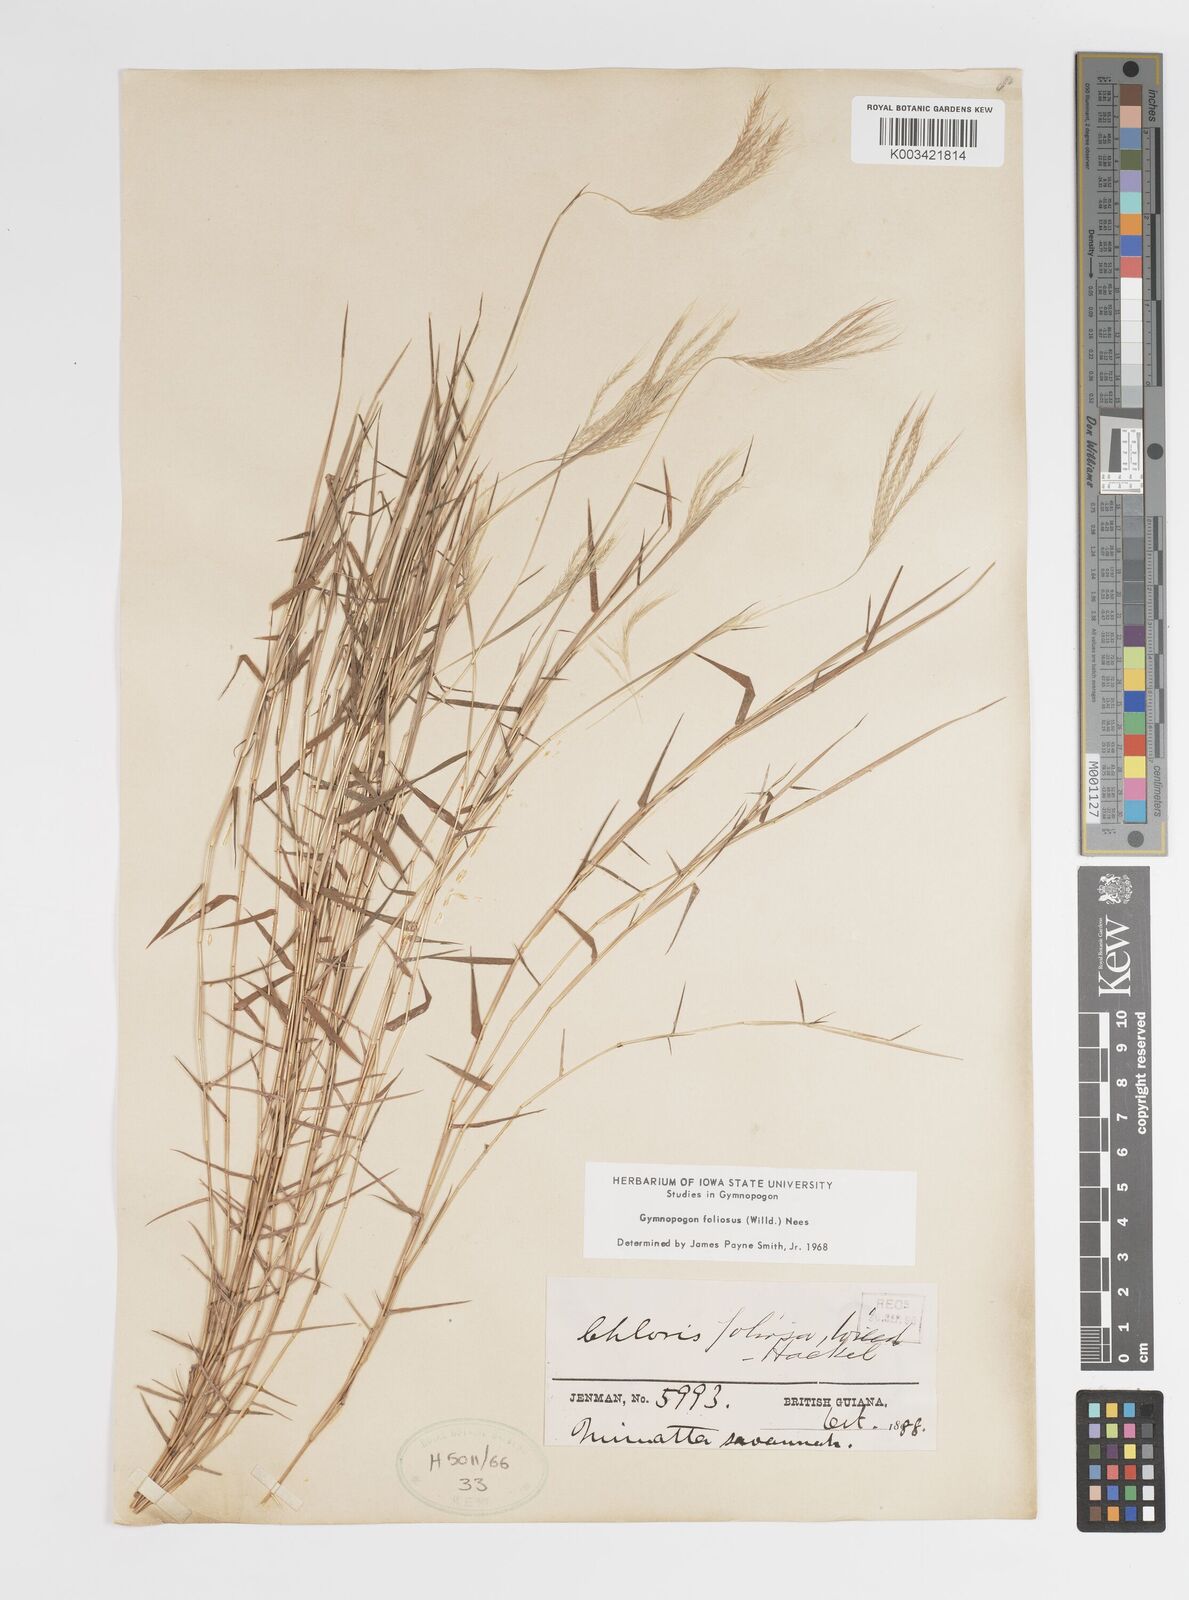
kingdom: Plantae
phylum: Tracheophyta
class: Liliopsida
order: Poales
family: Poaceae
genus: Gymnopogon
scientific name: Gymnopogon foliosus
